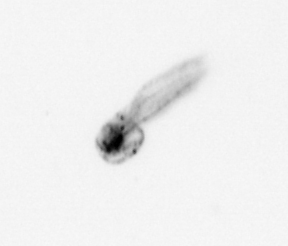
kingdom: Animalia
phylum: Chordata
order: Copelata
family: Fritillariidae
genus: Appendicularia
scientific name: Appendicularia
